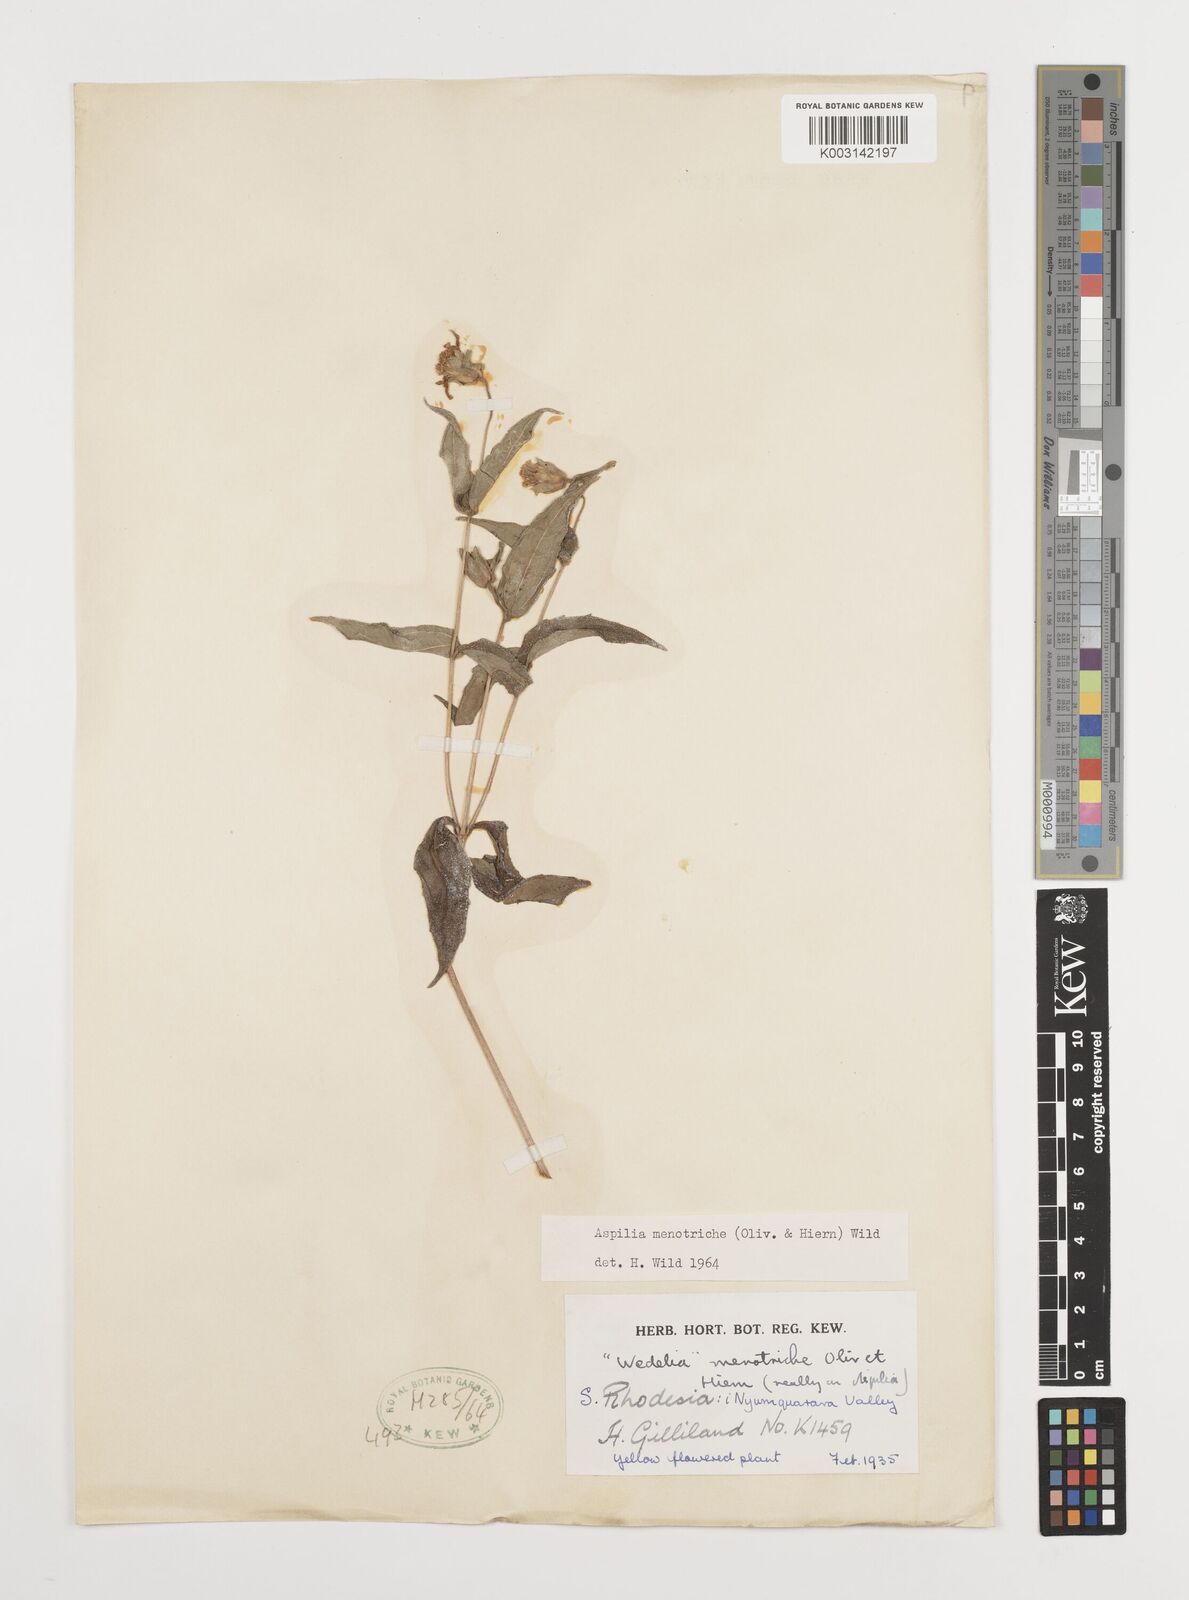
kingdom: Plantae
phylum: Tracheophyta
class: Magnoliopsida
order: Asterales
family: Asteraceae
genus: Aspilia
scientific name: Aspilia mossambicensis
